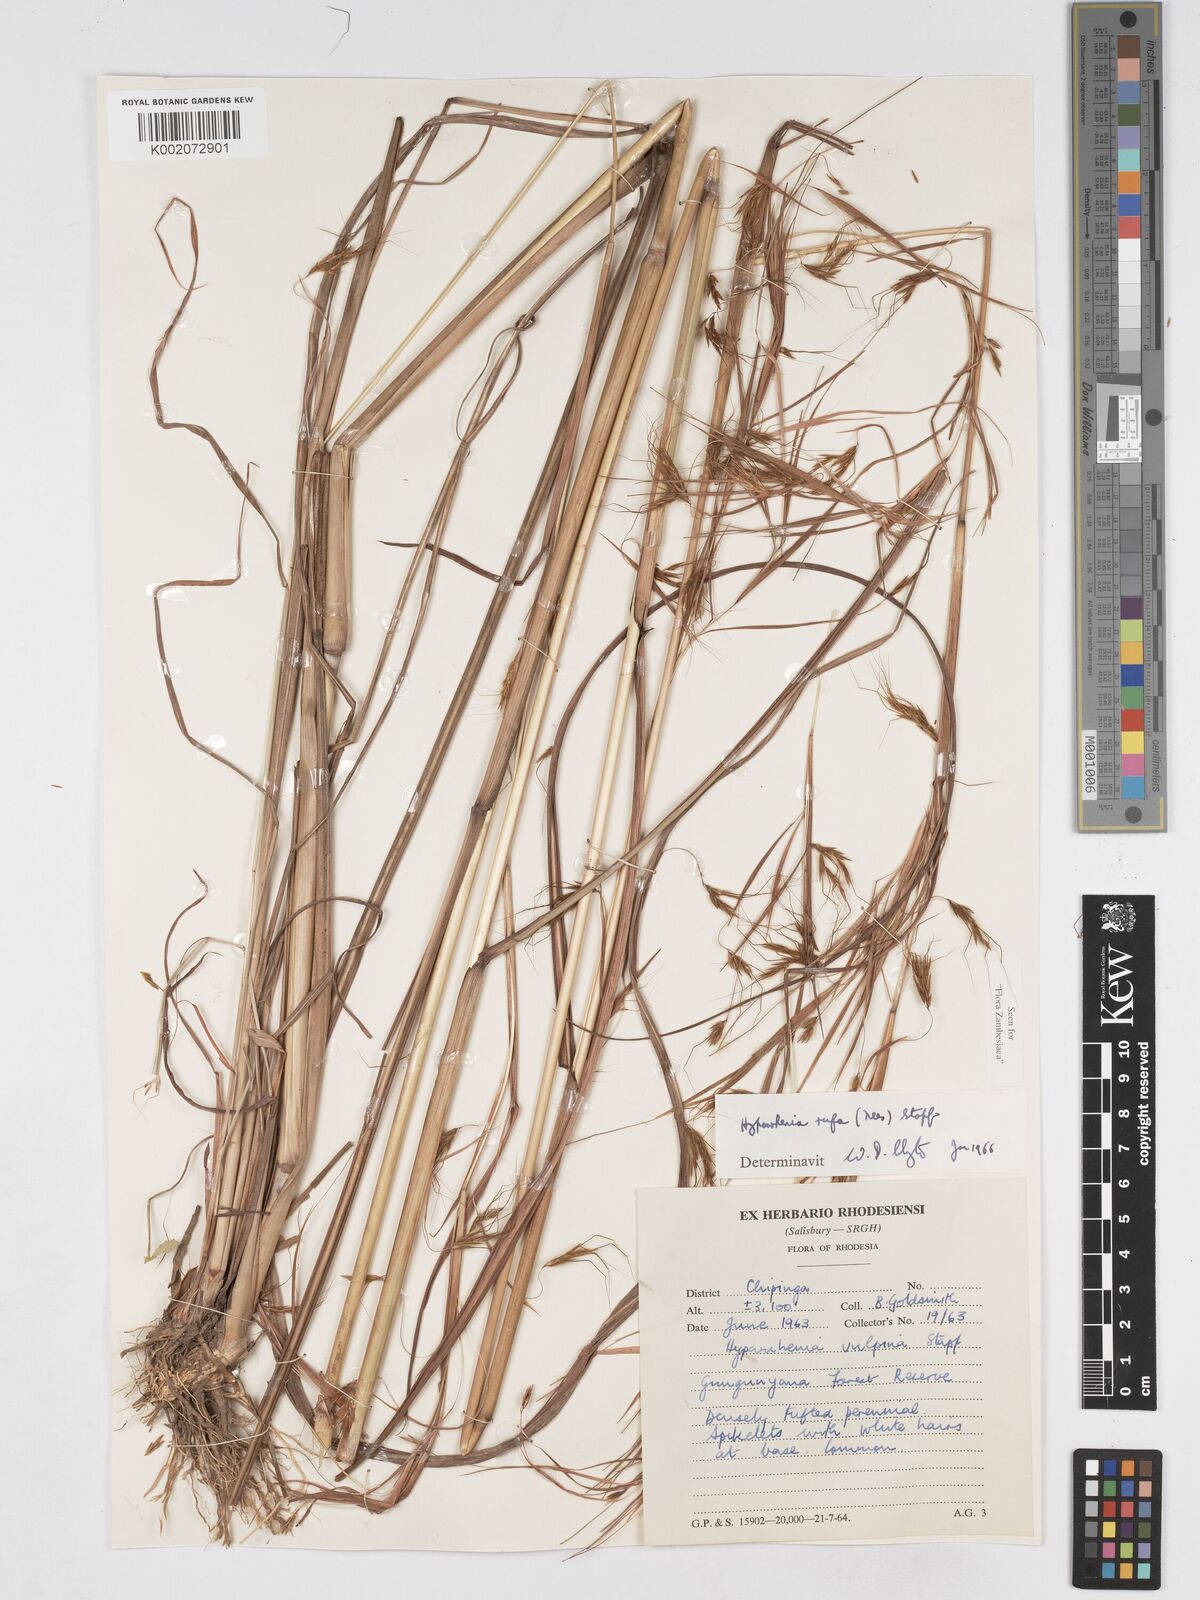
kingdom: Plantae
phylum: Tracheophyta
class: Liliopsida
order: Poales
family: Poaceae
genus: Hyparrhenia
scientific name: Hyparrhenia rufa
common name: Jaraguagrass
